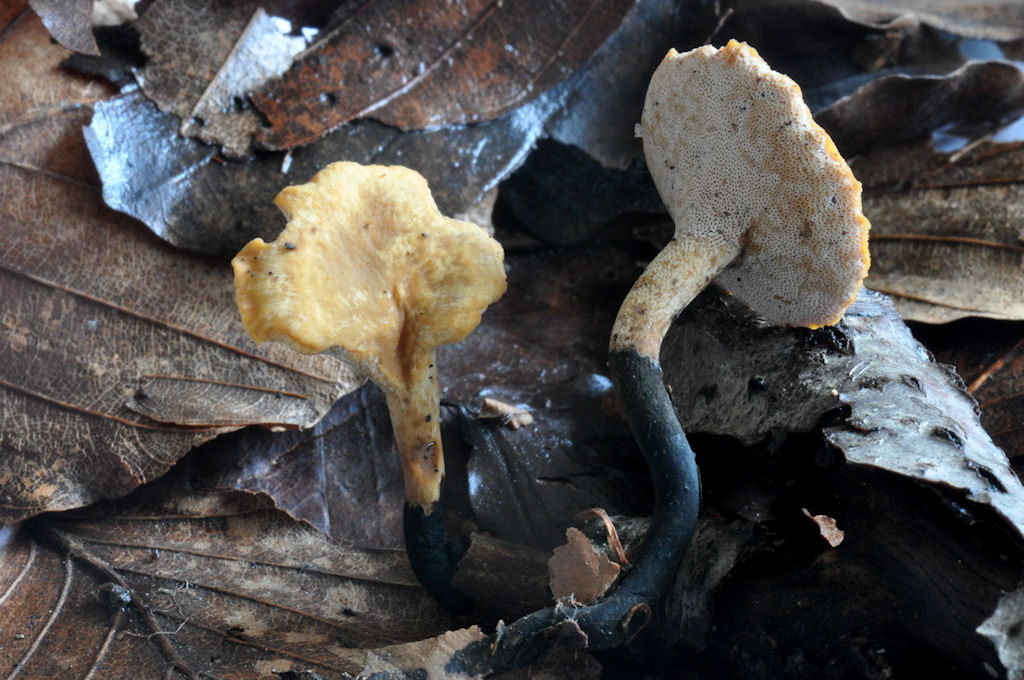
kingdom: Fungi
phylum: Basidiomycota
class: Agaricomycetes
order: Polyporales
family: Polyporaceae
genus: Cerioporus
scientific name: Cerioporus varius
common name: foranderlig stilkporesvamp
